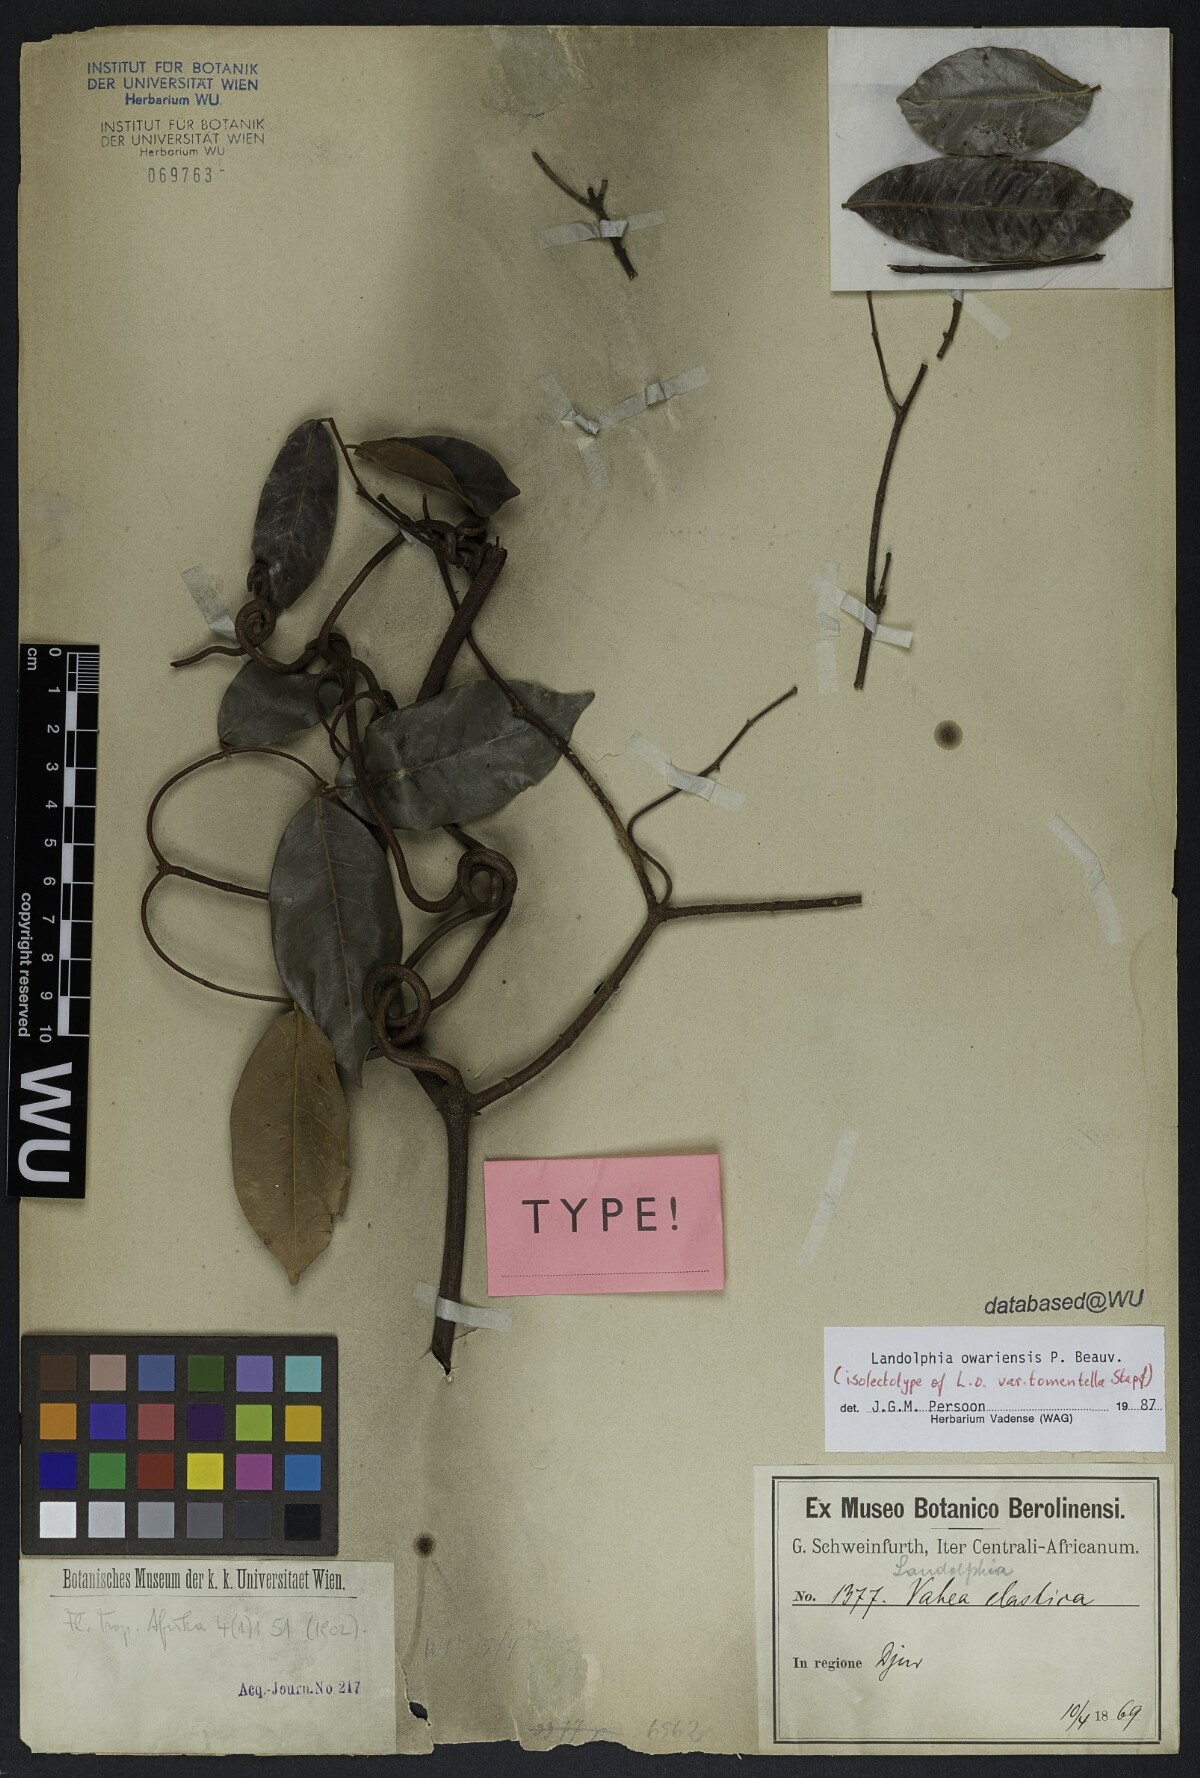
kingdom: Plantae
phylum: Tracheophyta
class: Magnoliopsida
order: Gentianales
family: Apocynaceae
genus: Landolphia
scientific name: Landolphia owariensis
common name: White-ball-rubber
